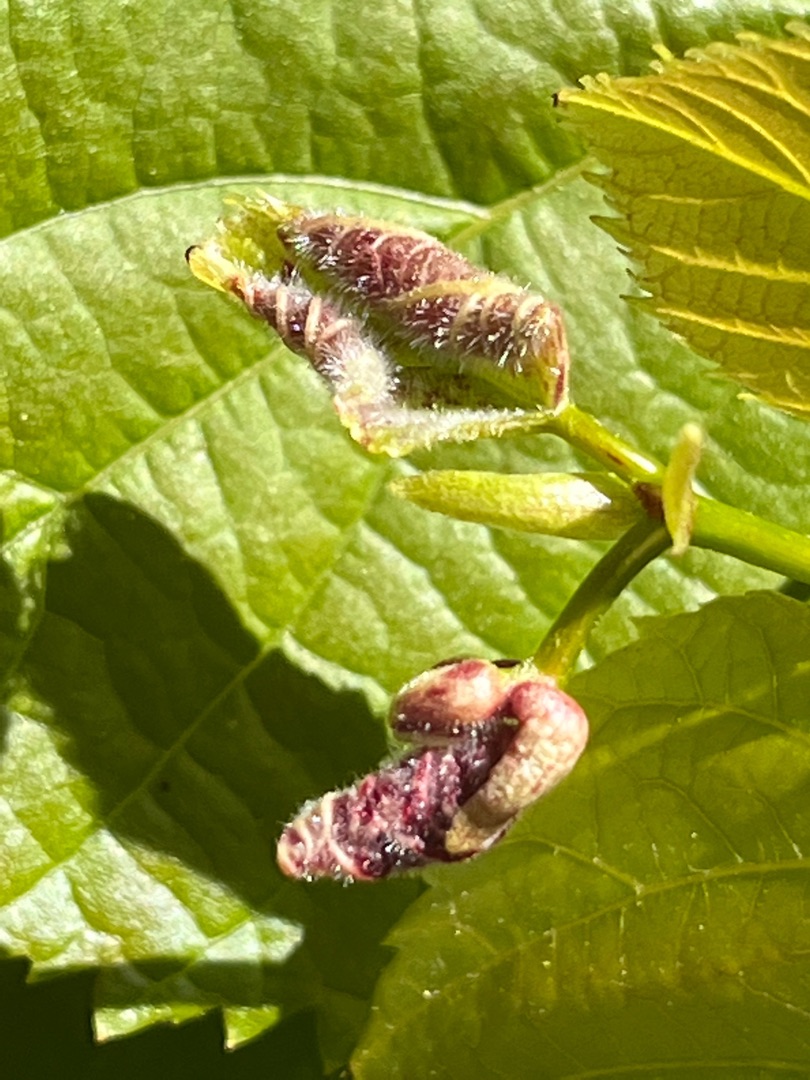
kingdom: Animalia
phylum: Arthropoda
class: Insecta
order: Diptera
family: Cecidomyiidae
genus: Dasineura
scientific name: Dasineura tiliae
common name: Linderullegalmyg
